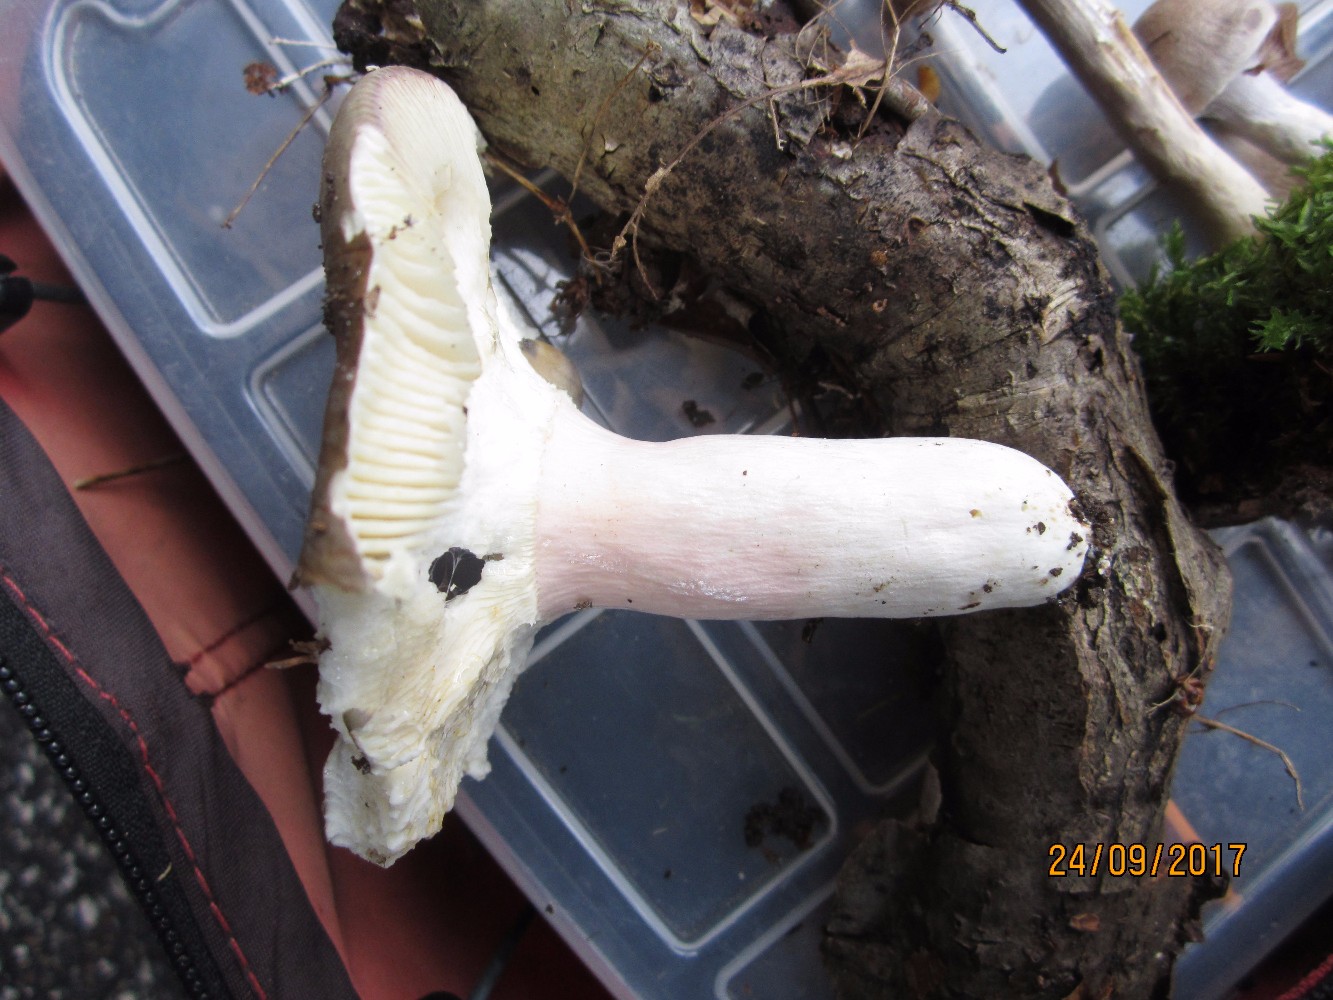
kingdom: Fungi
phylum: Basidiomycota
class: Agaricomycetes
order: Russulales
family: Russulaceae
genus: Russula
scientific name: Russula olivacea
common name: stor skørhat
